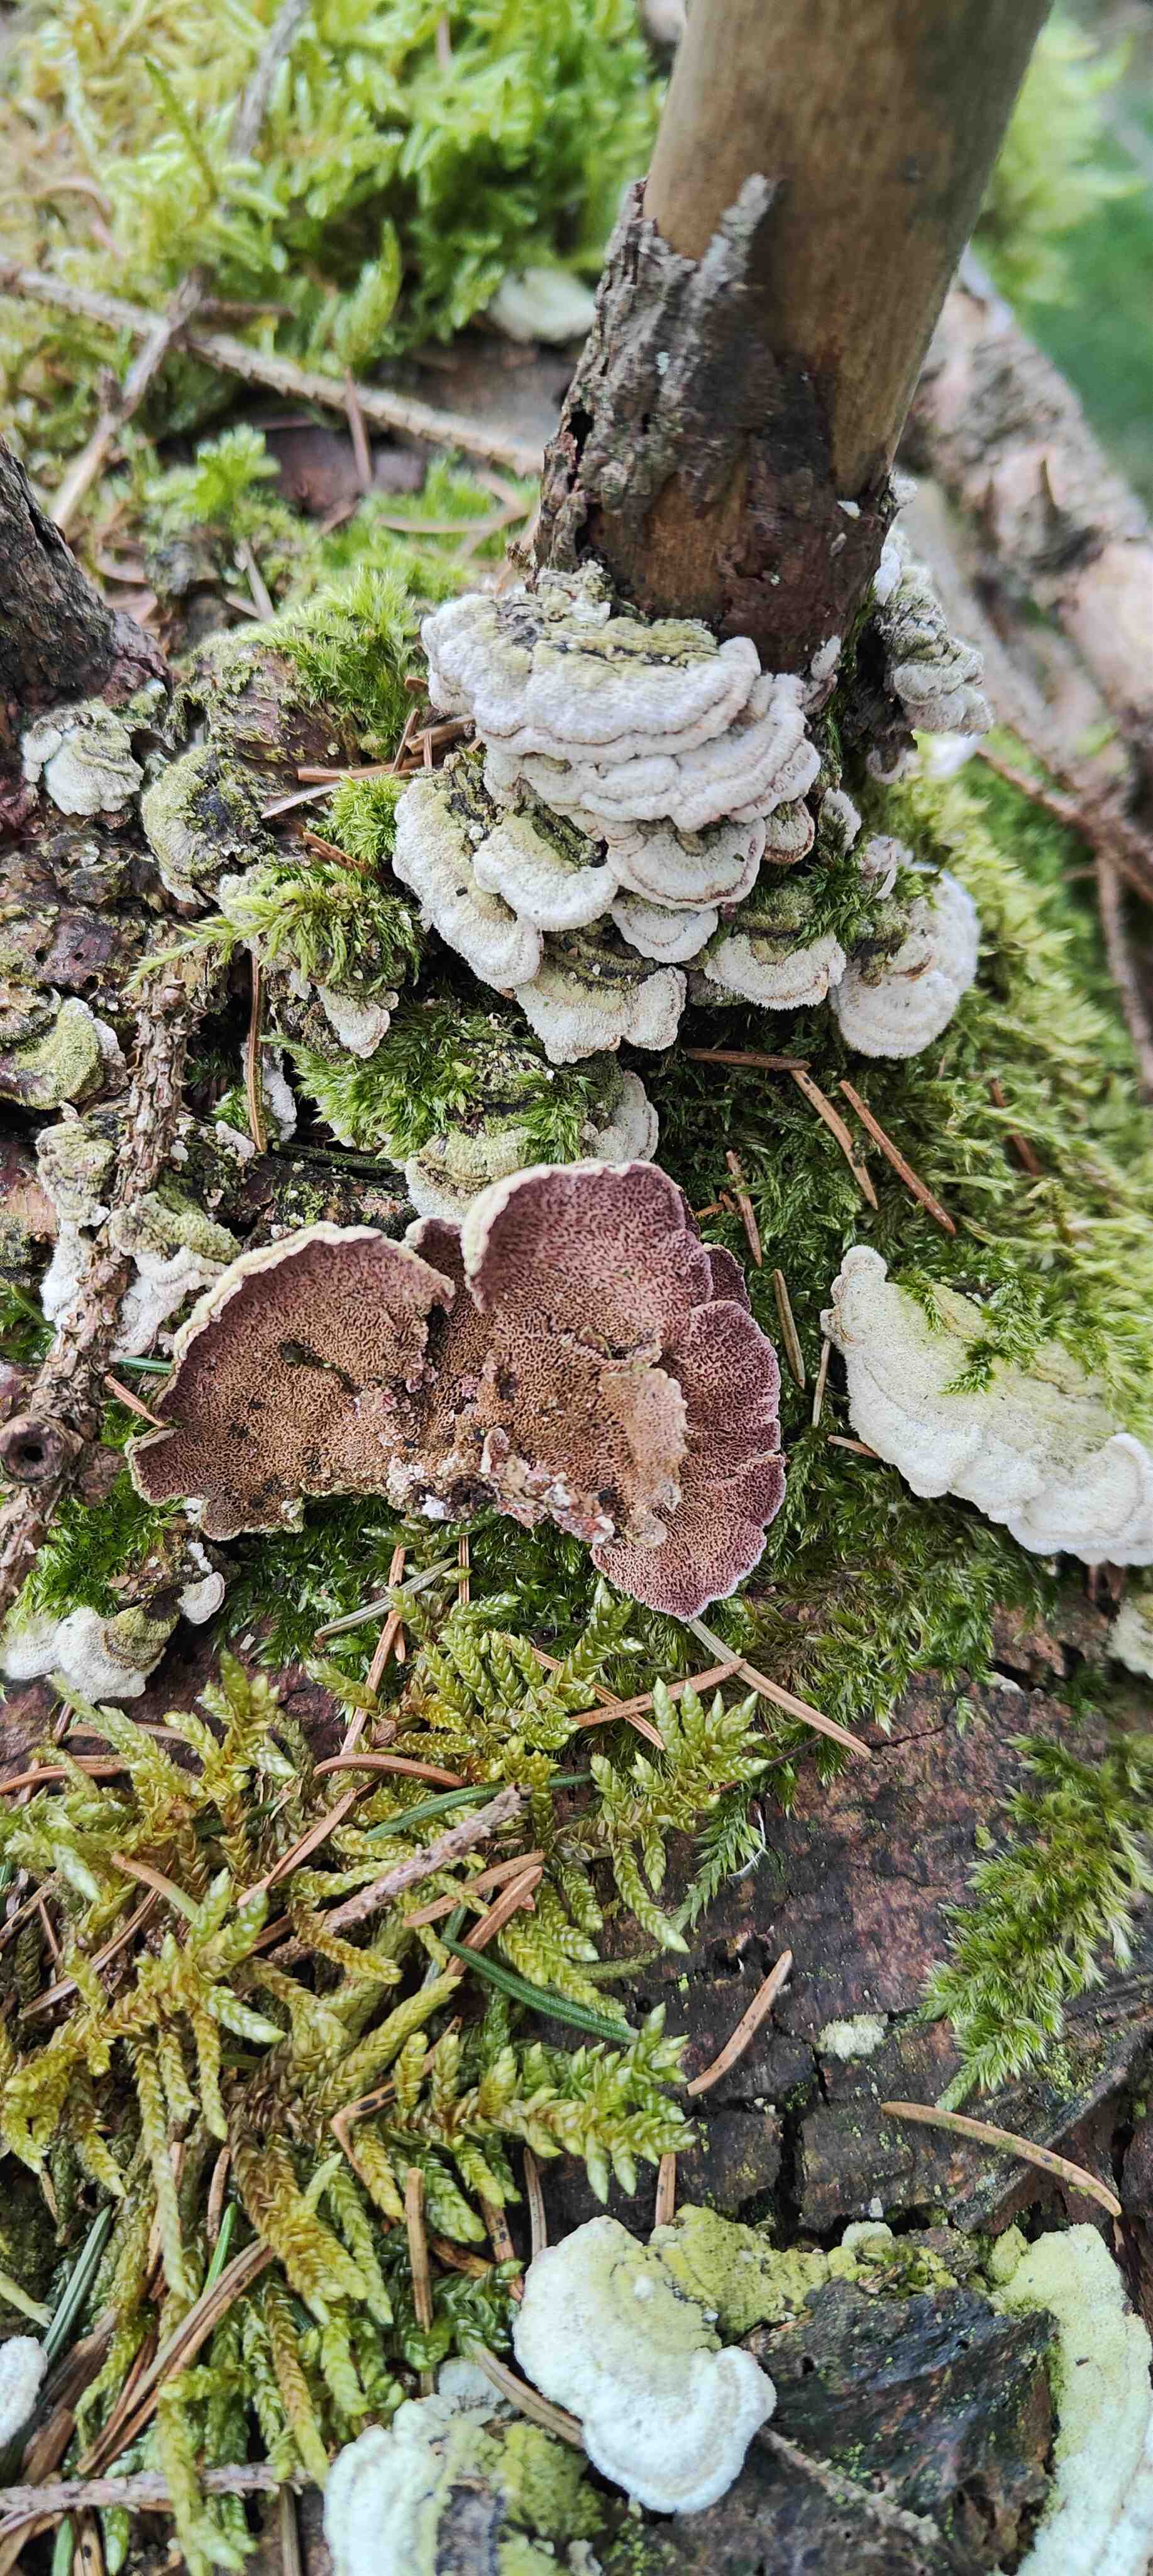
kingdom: Fungi
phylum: Basidiomycota
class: Agaricomycetes
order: Hymenochaetales
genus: Trichaptum
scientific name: Trichaptum abietinum
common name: almindelig violporesvamp
